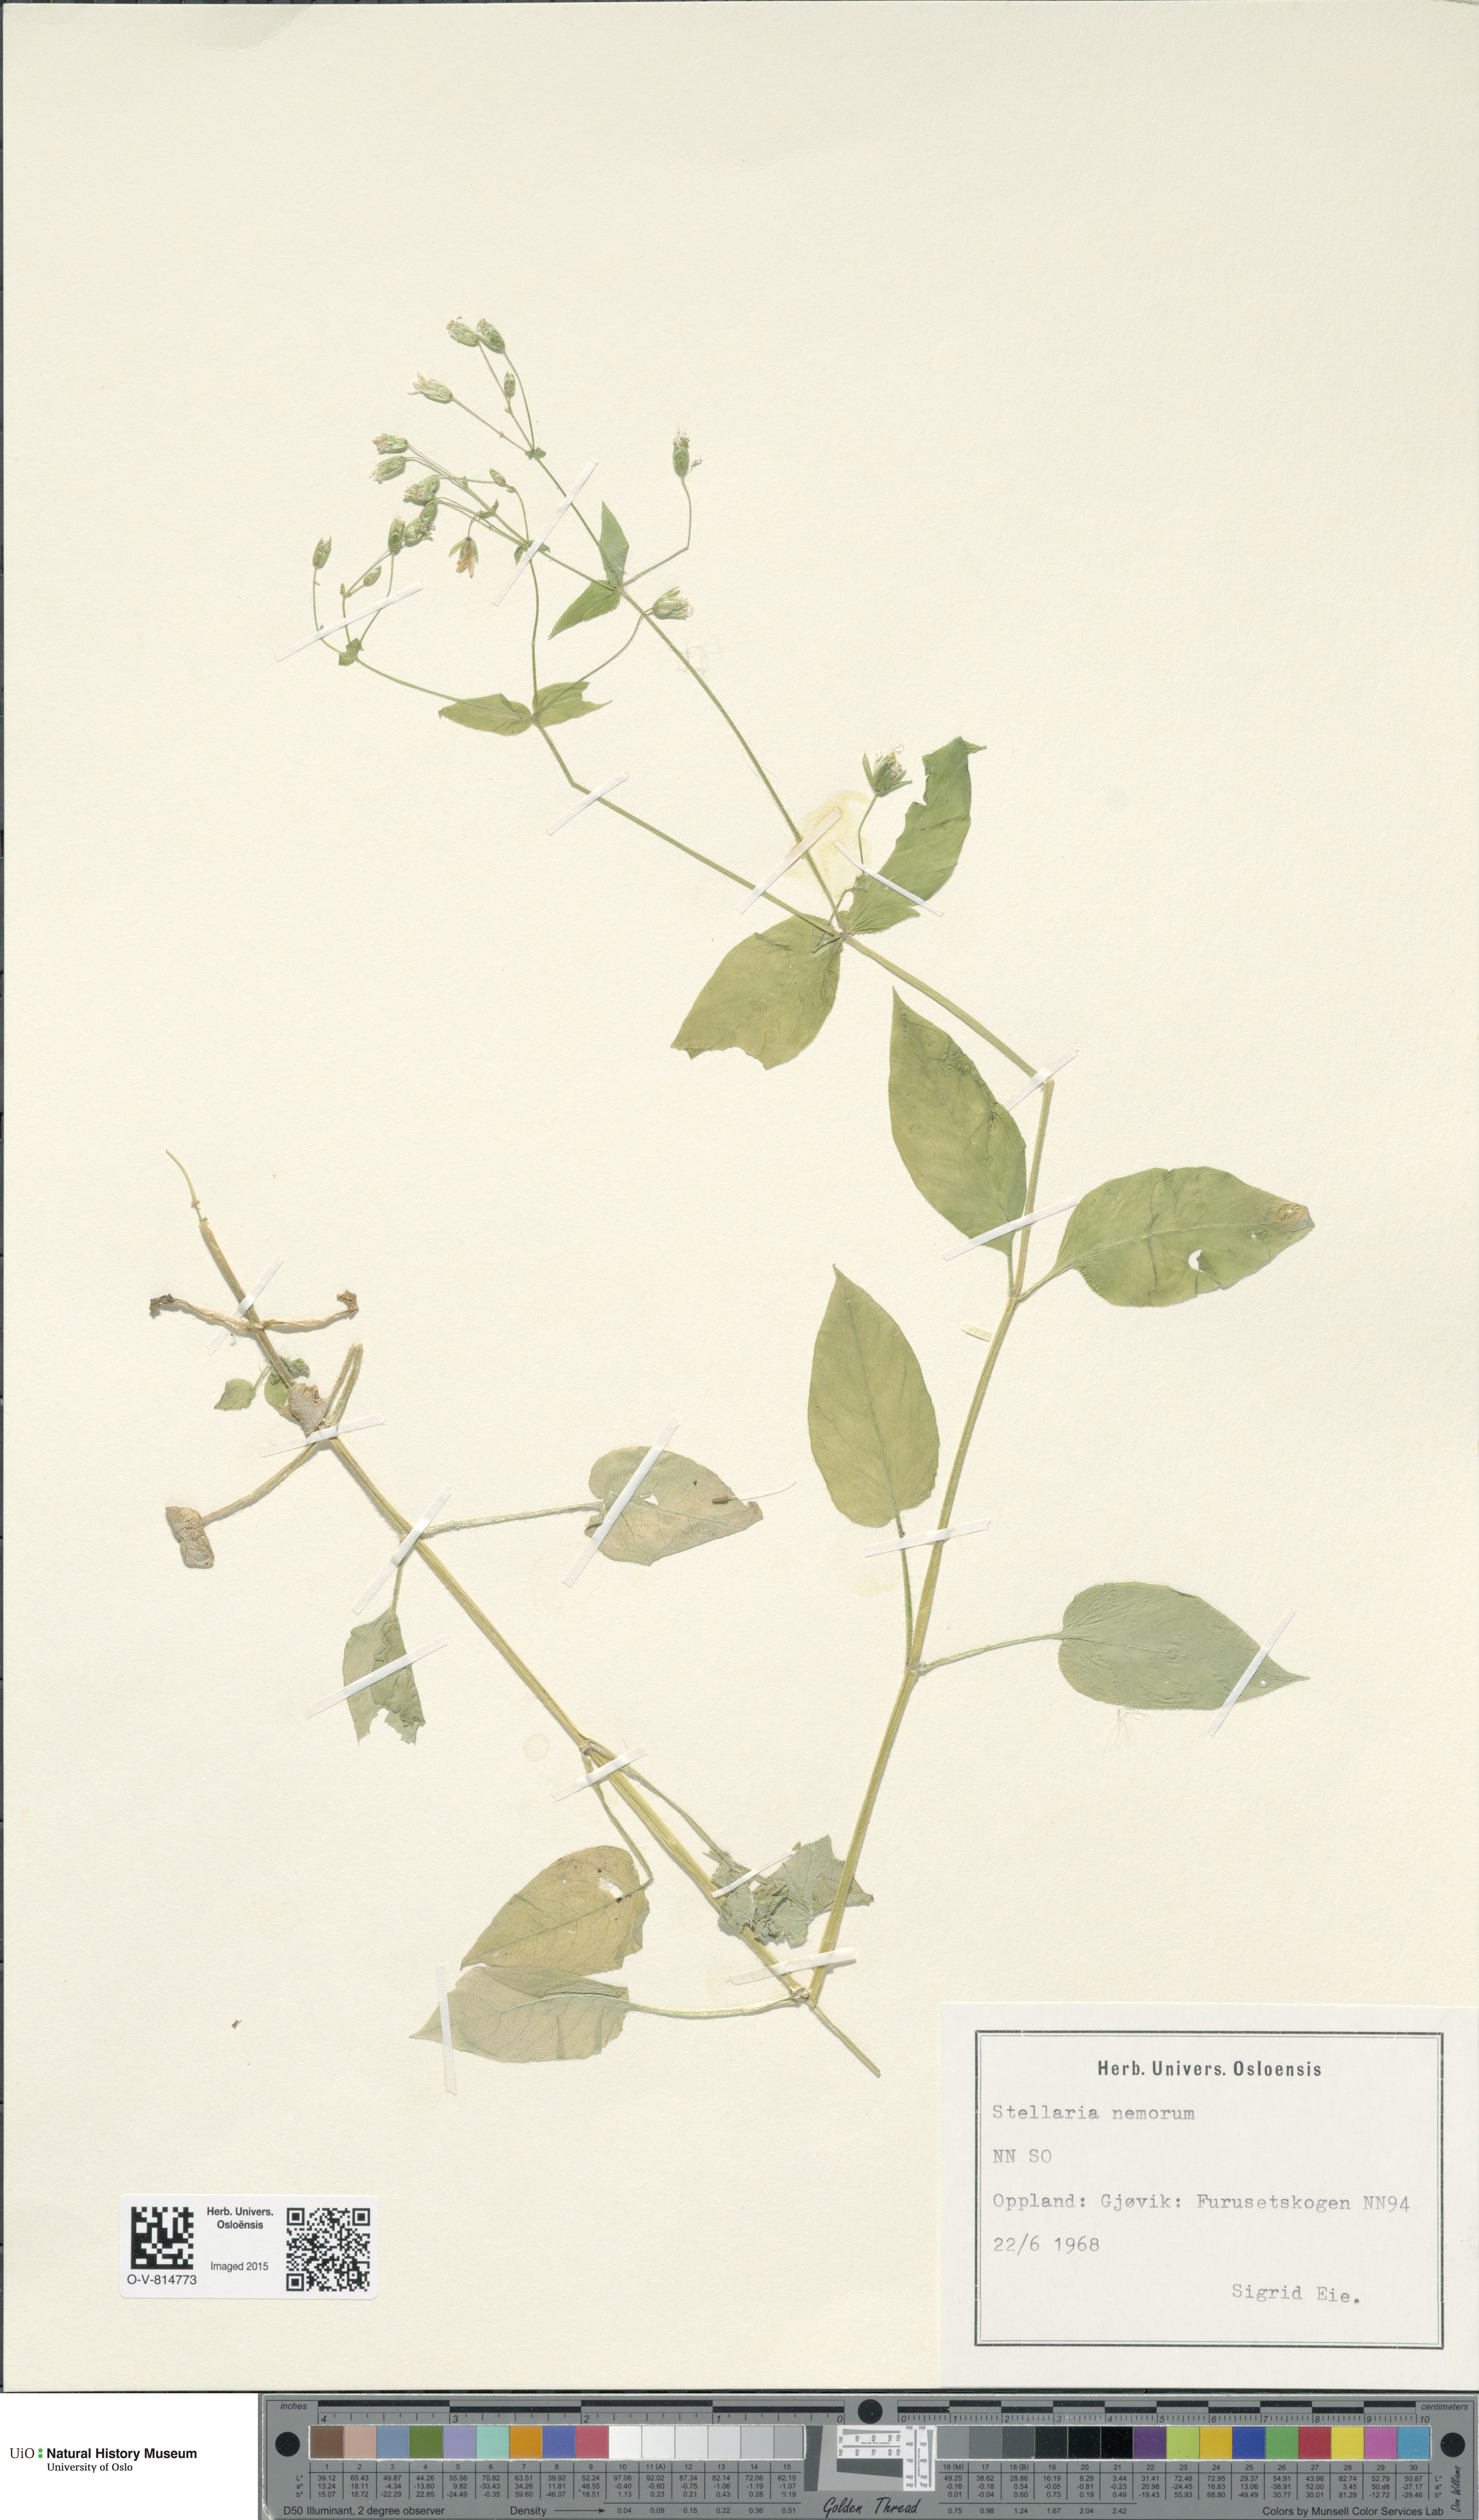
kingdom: Plantae
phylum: Tracheophyta
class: Magnoliopsida
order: Caryophyllales
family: Caryophyllaceae
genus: Stellaria
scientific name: Stellaria nemorum
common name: Wood stitchwort
